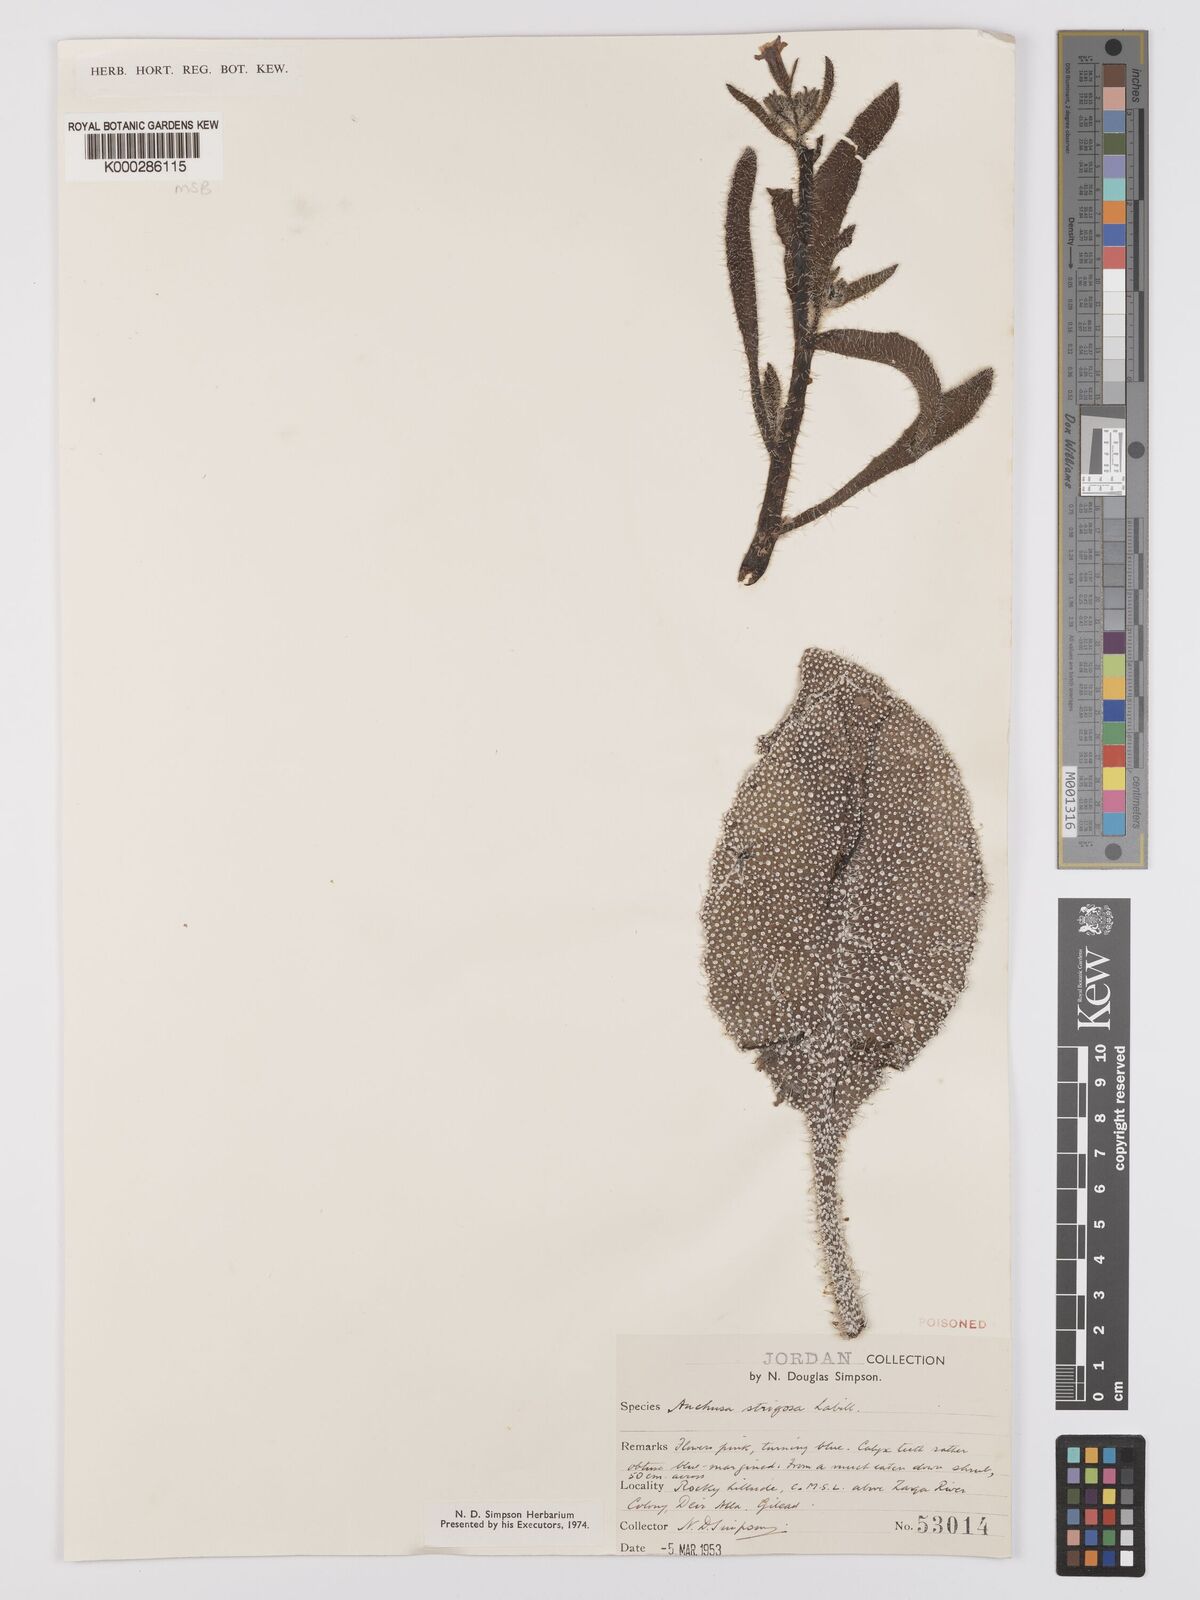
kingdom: Plantae
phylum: Tracheophyta
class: Magnoliopsida
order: Boraginales
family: Boraginaceae
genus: Anchusa
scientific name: Anchusa strigosa
